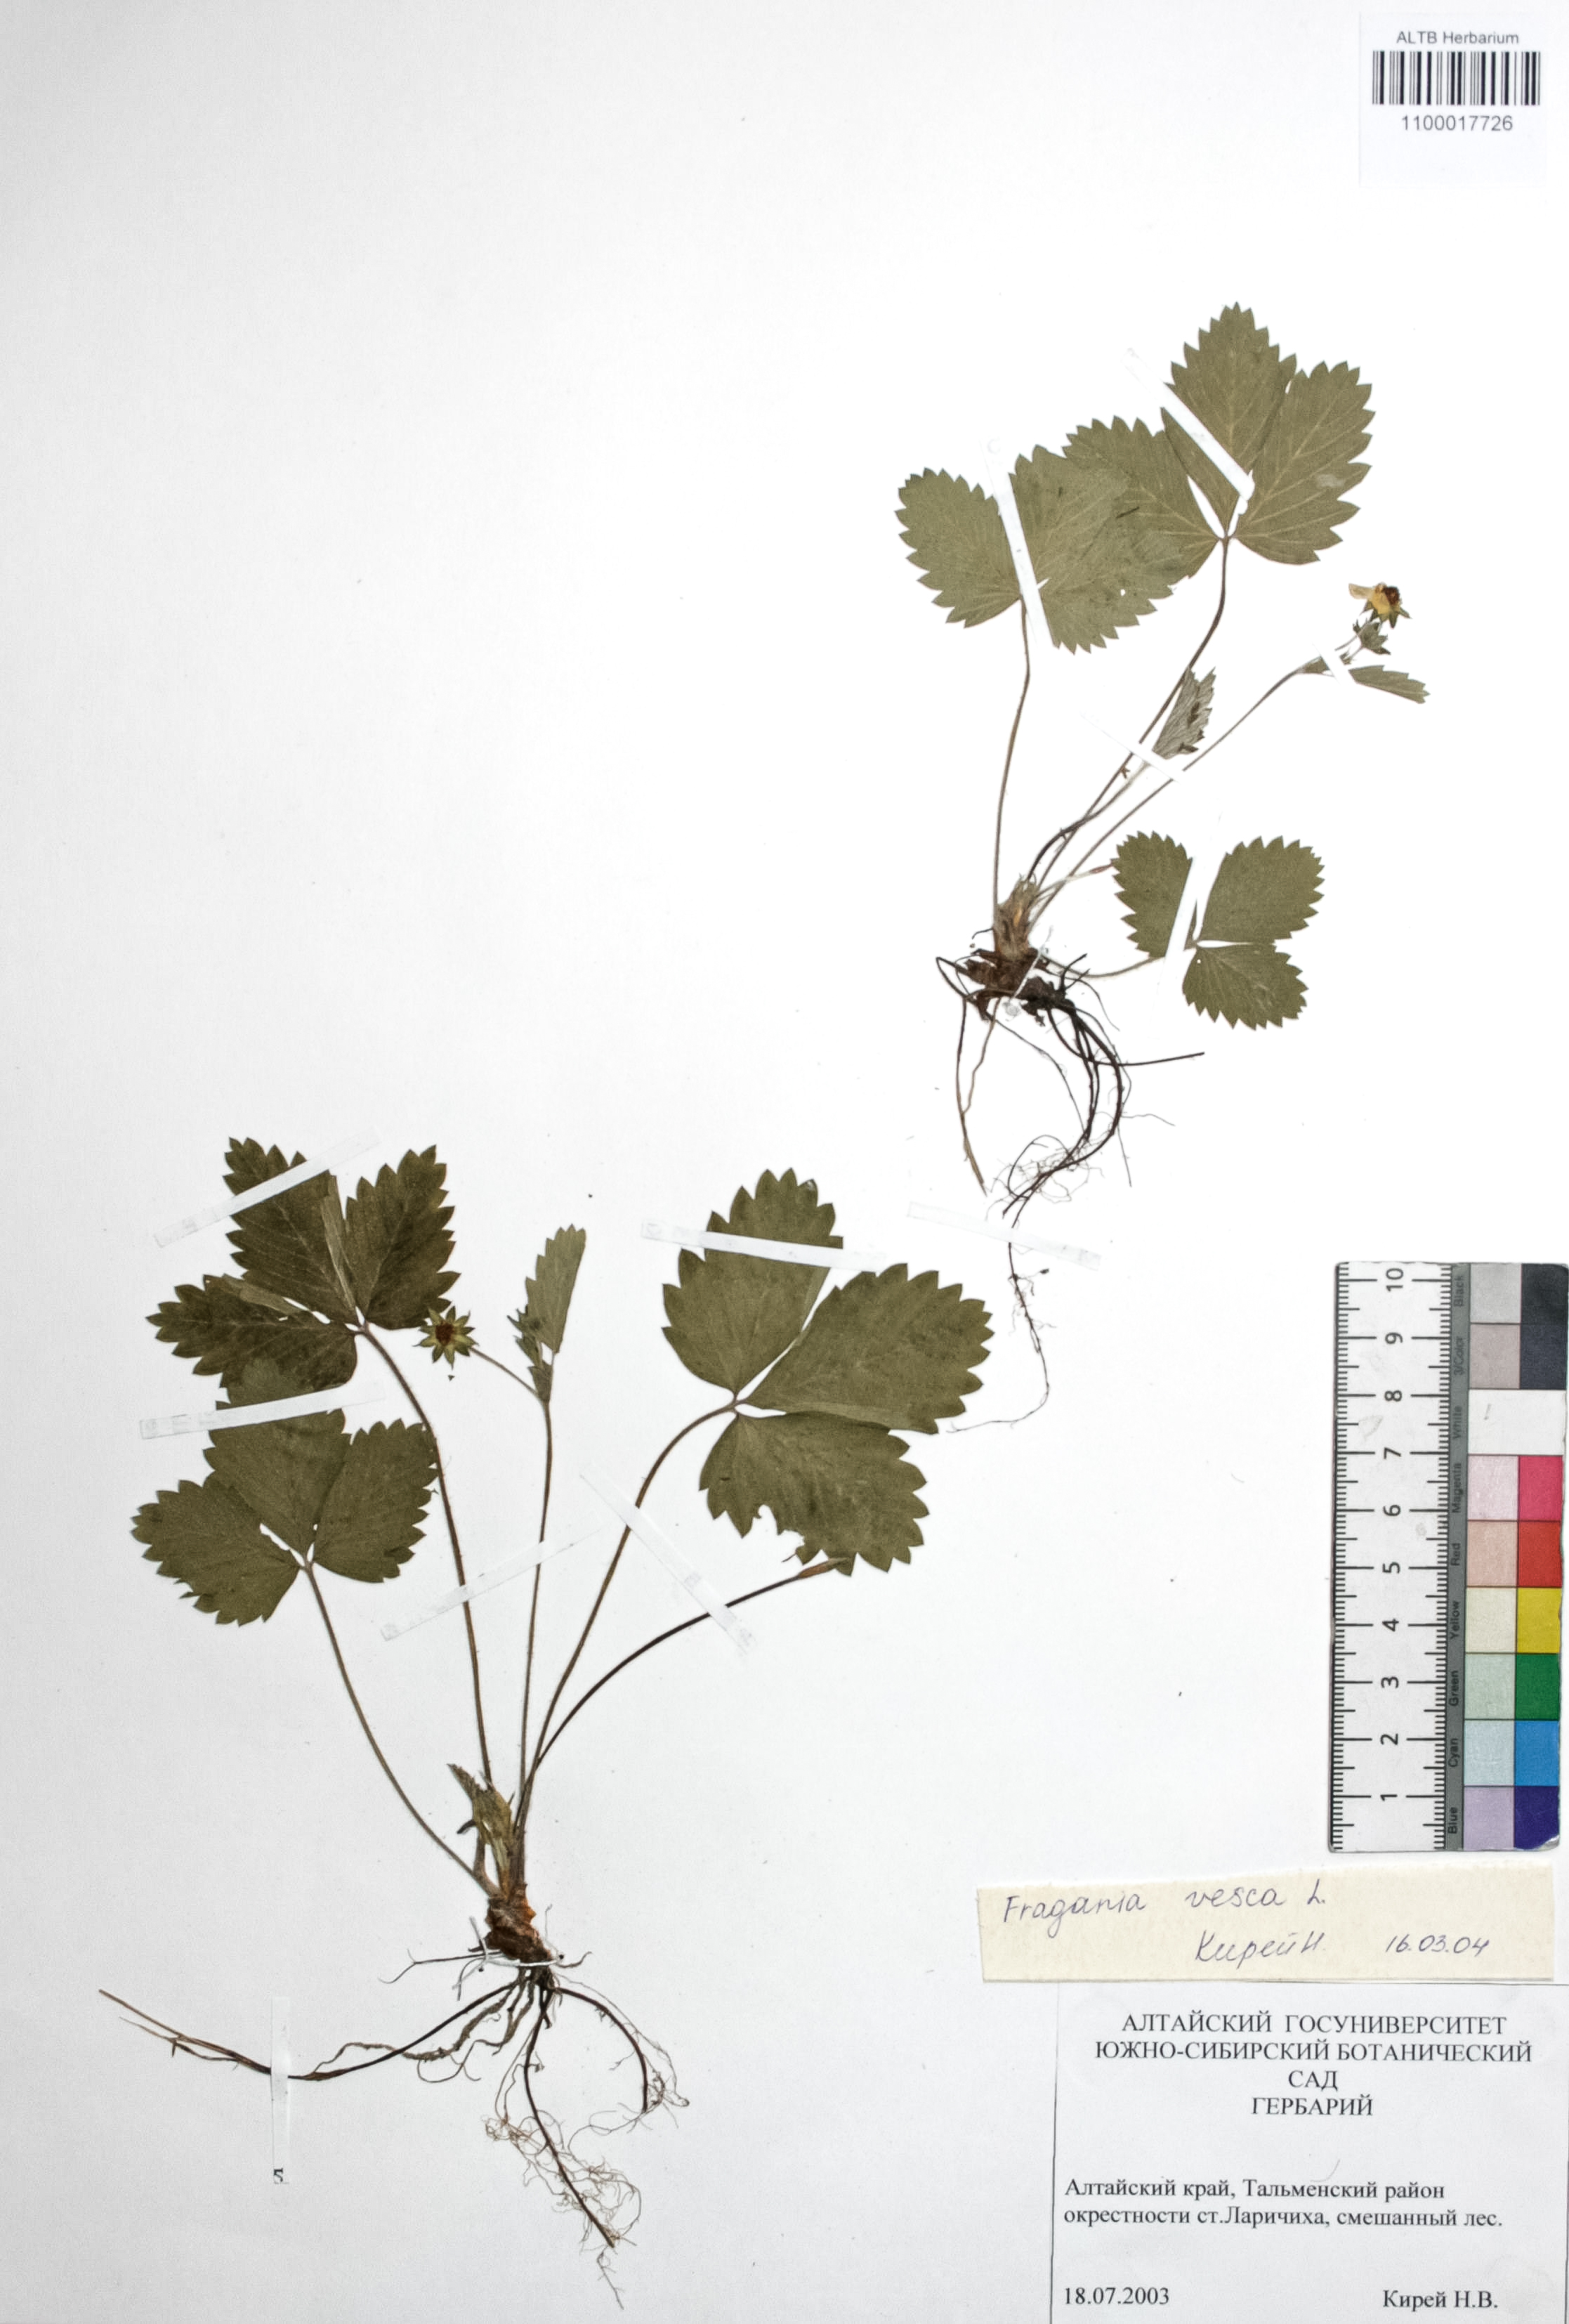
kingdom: Plantae
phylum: Tracheophyta
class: Magnoliopsida
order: Rosales
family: Rosaceae
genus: Fragaria
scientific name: Fragaria vesca
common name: Wild strawberry
